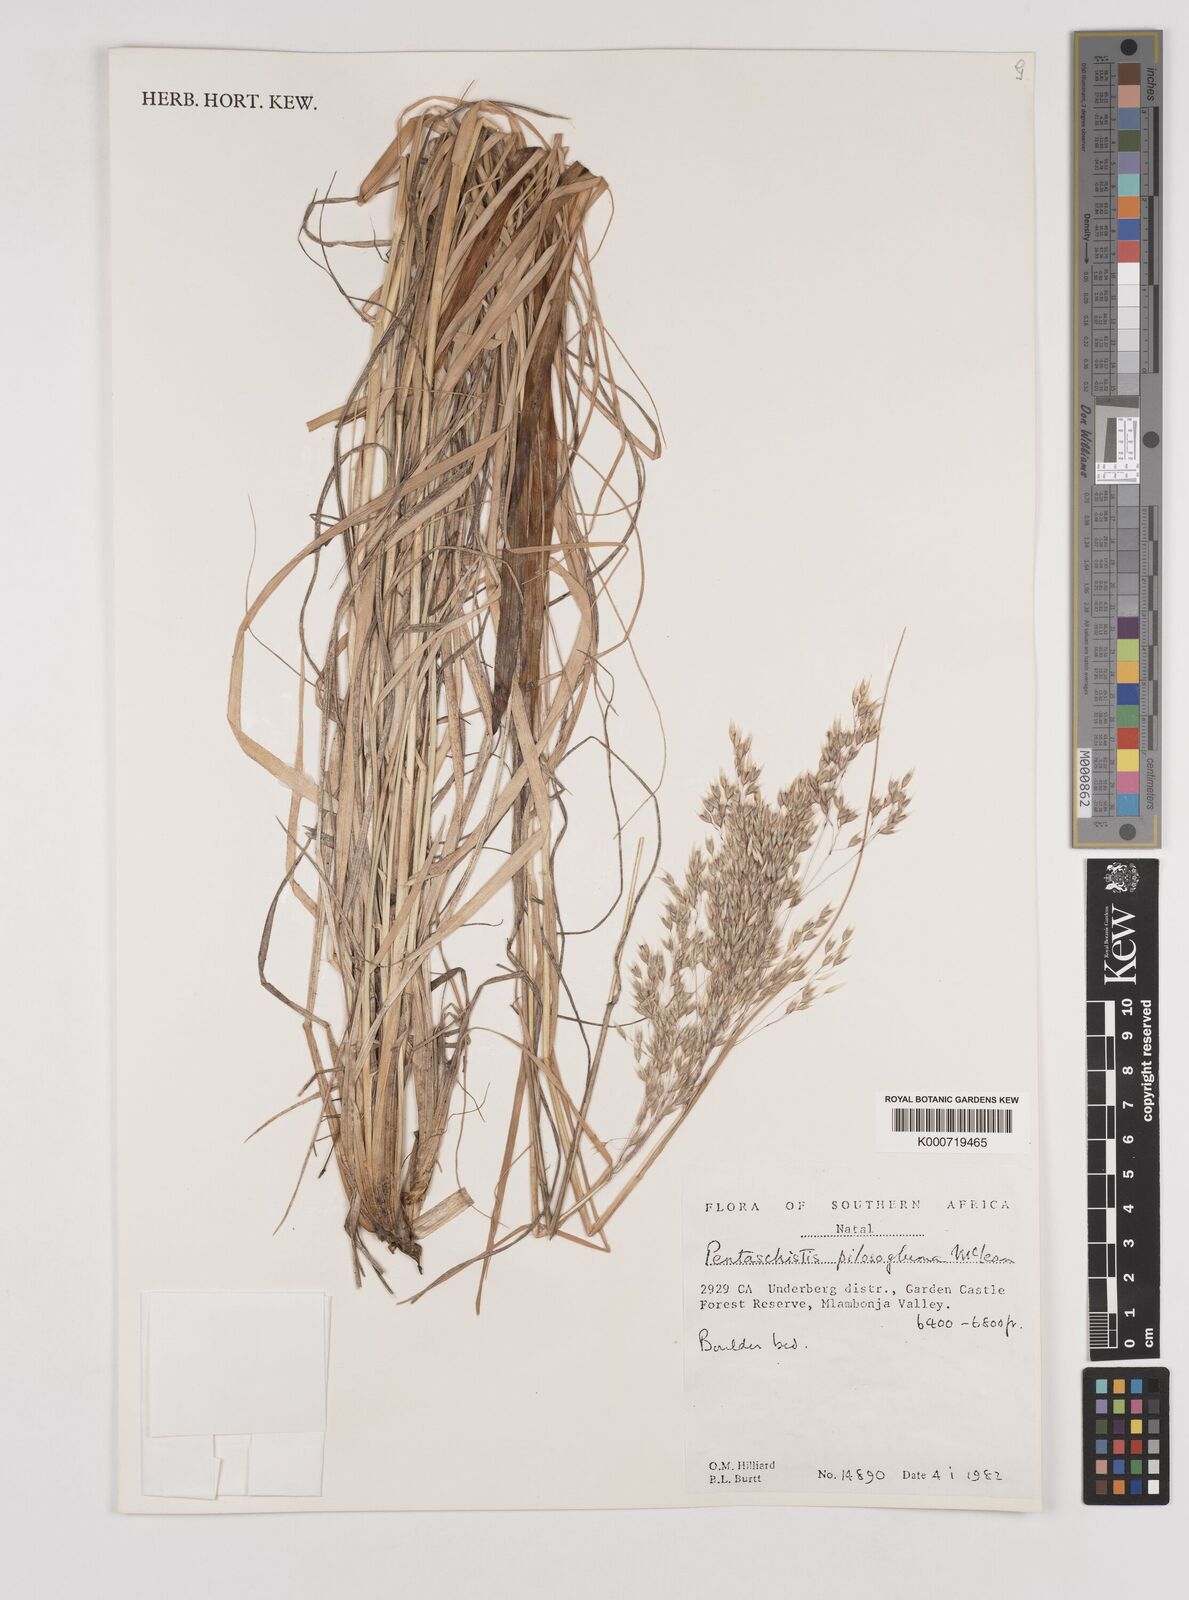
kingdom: Plantae
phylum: Tracheophyta
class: Liliopsida
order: Poales
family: Poaceae
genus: Pentameris
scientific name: Pentameris aurea
